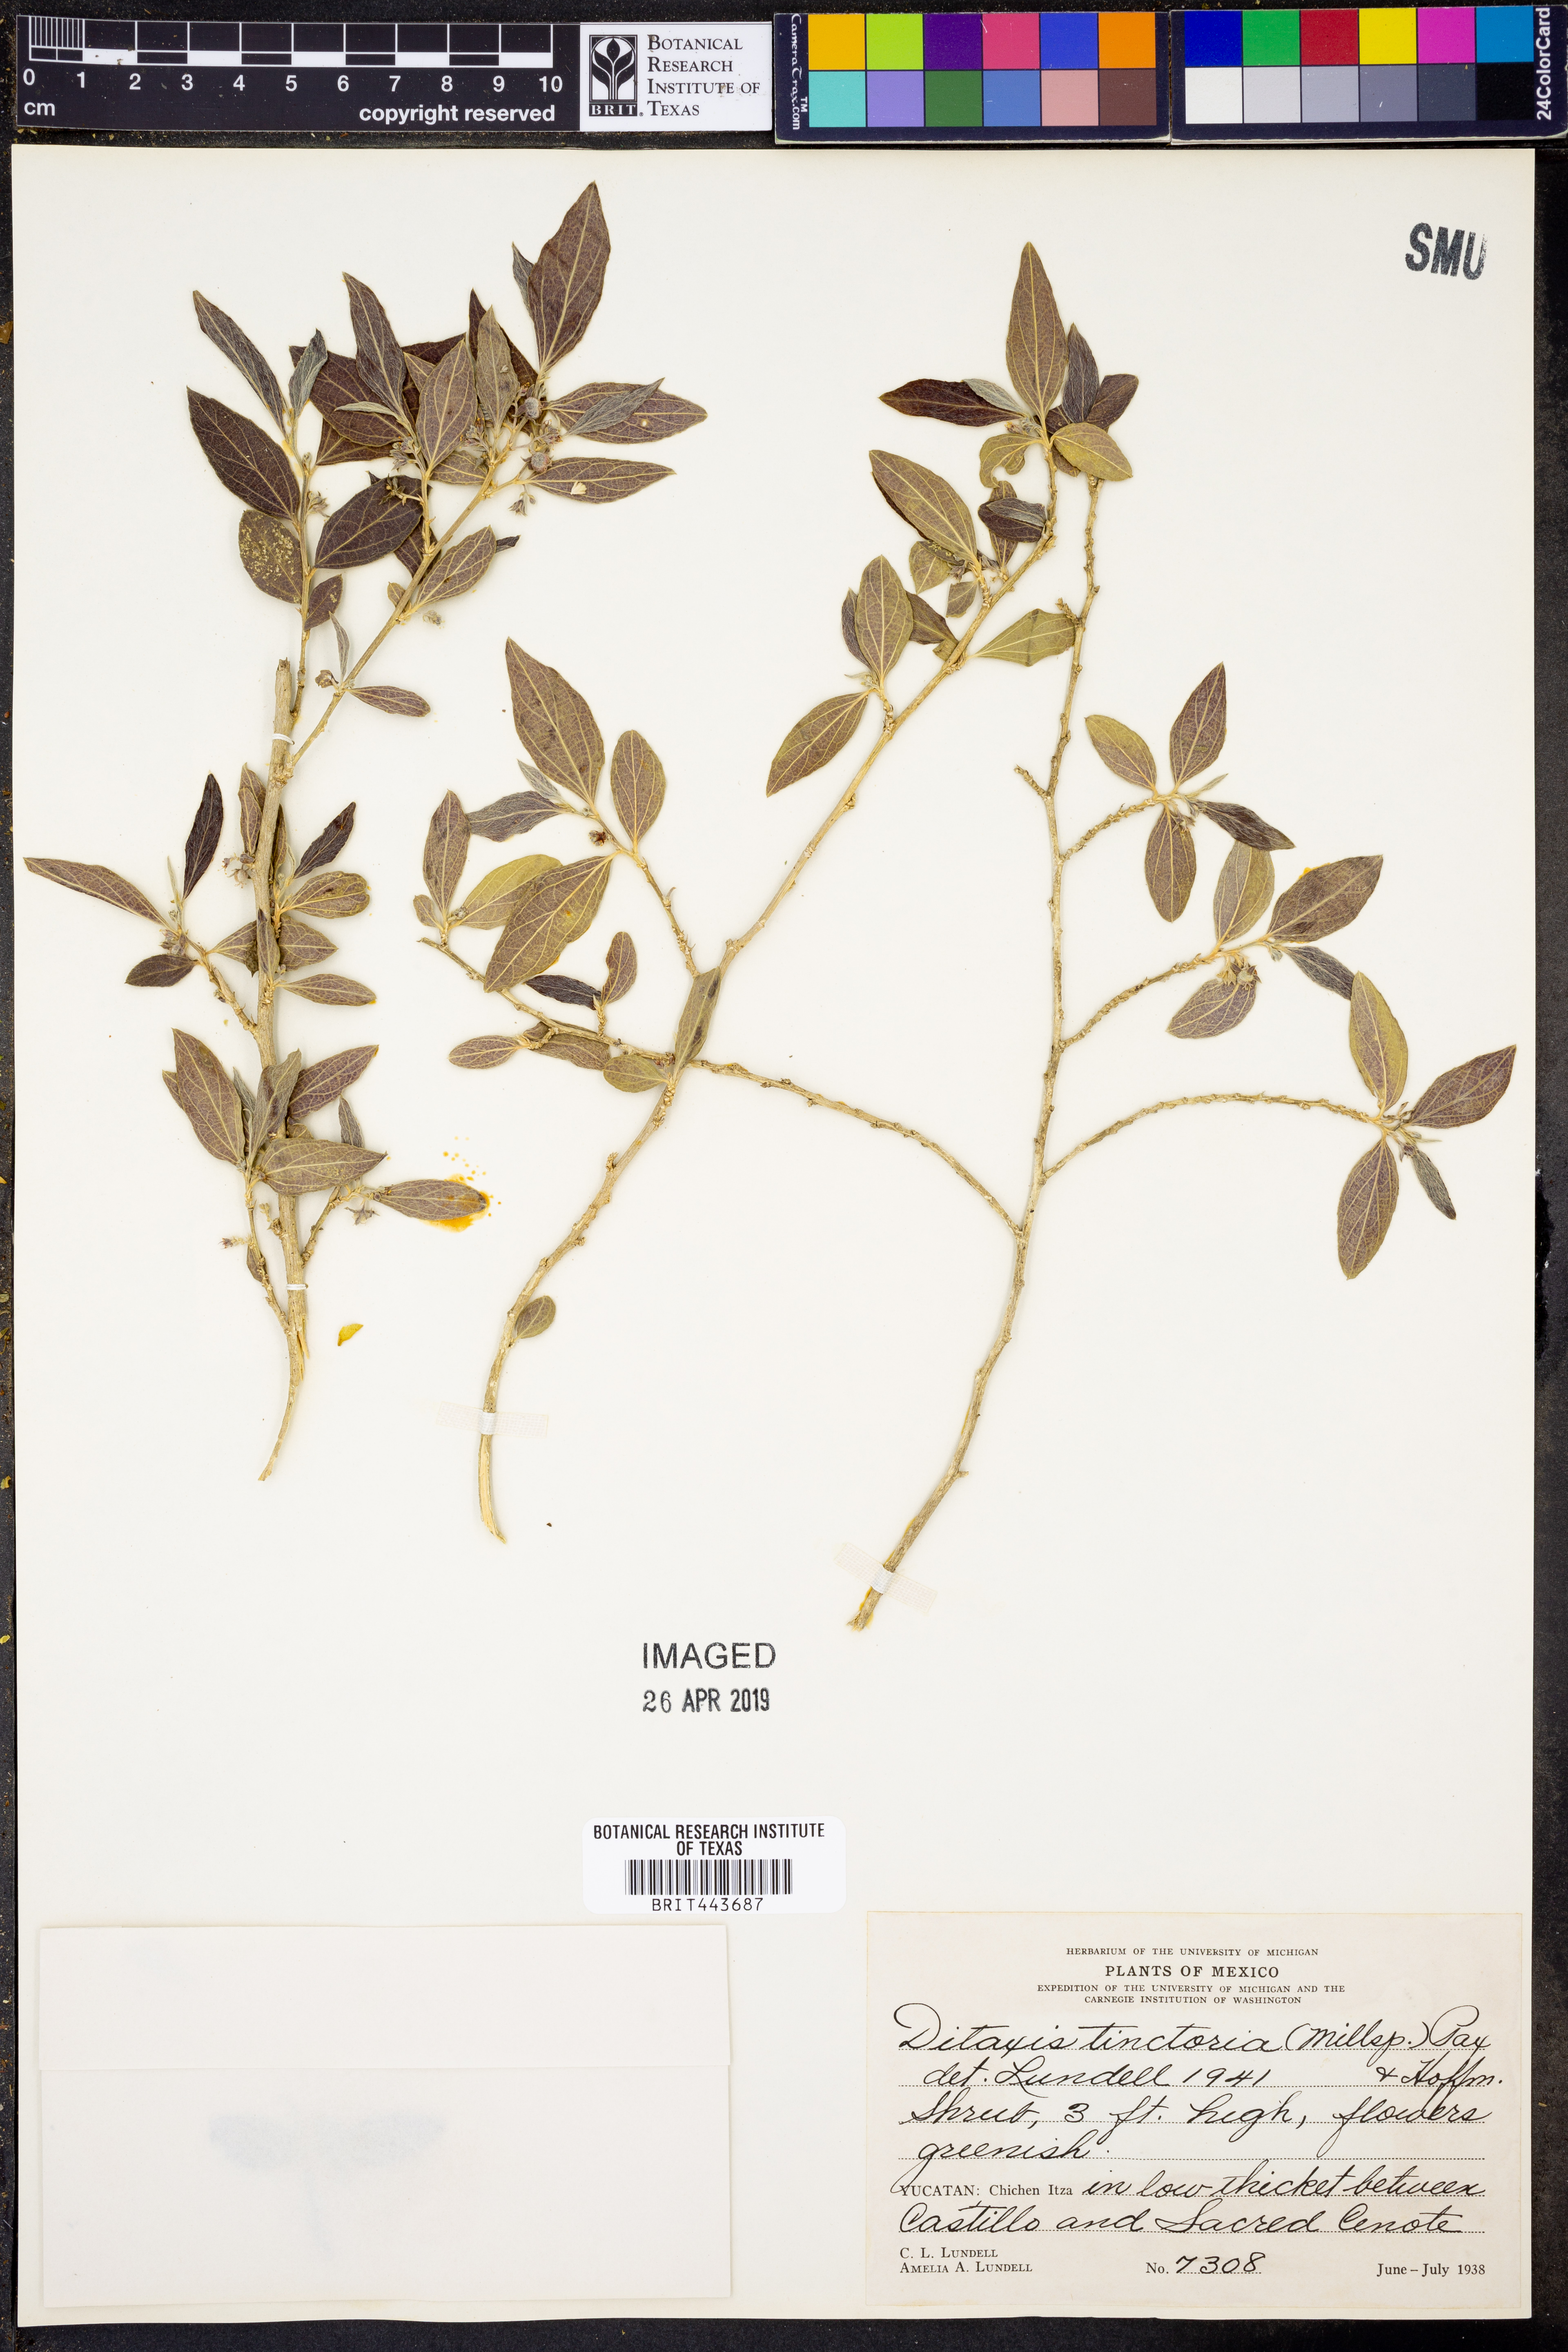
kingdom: Plantae
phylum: Tracheophyta
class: Magnoliopsida
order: Malpighiales
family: Euphorbiaceae
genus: Argythamnia
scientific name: Argythamnia tinctoria
